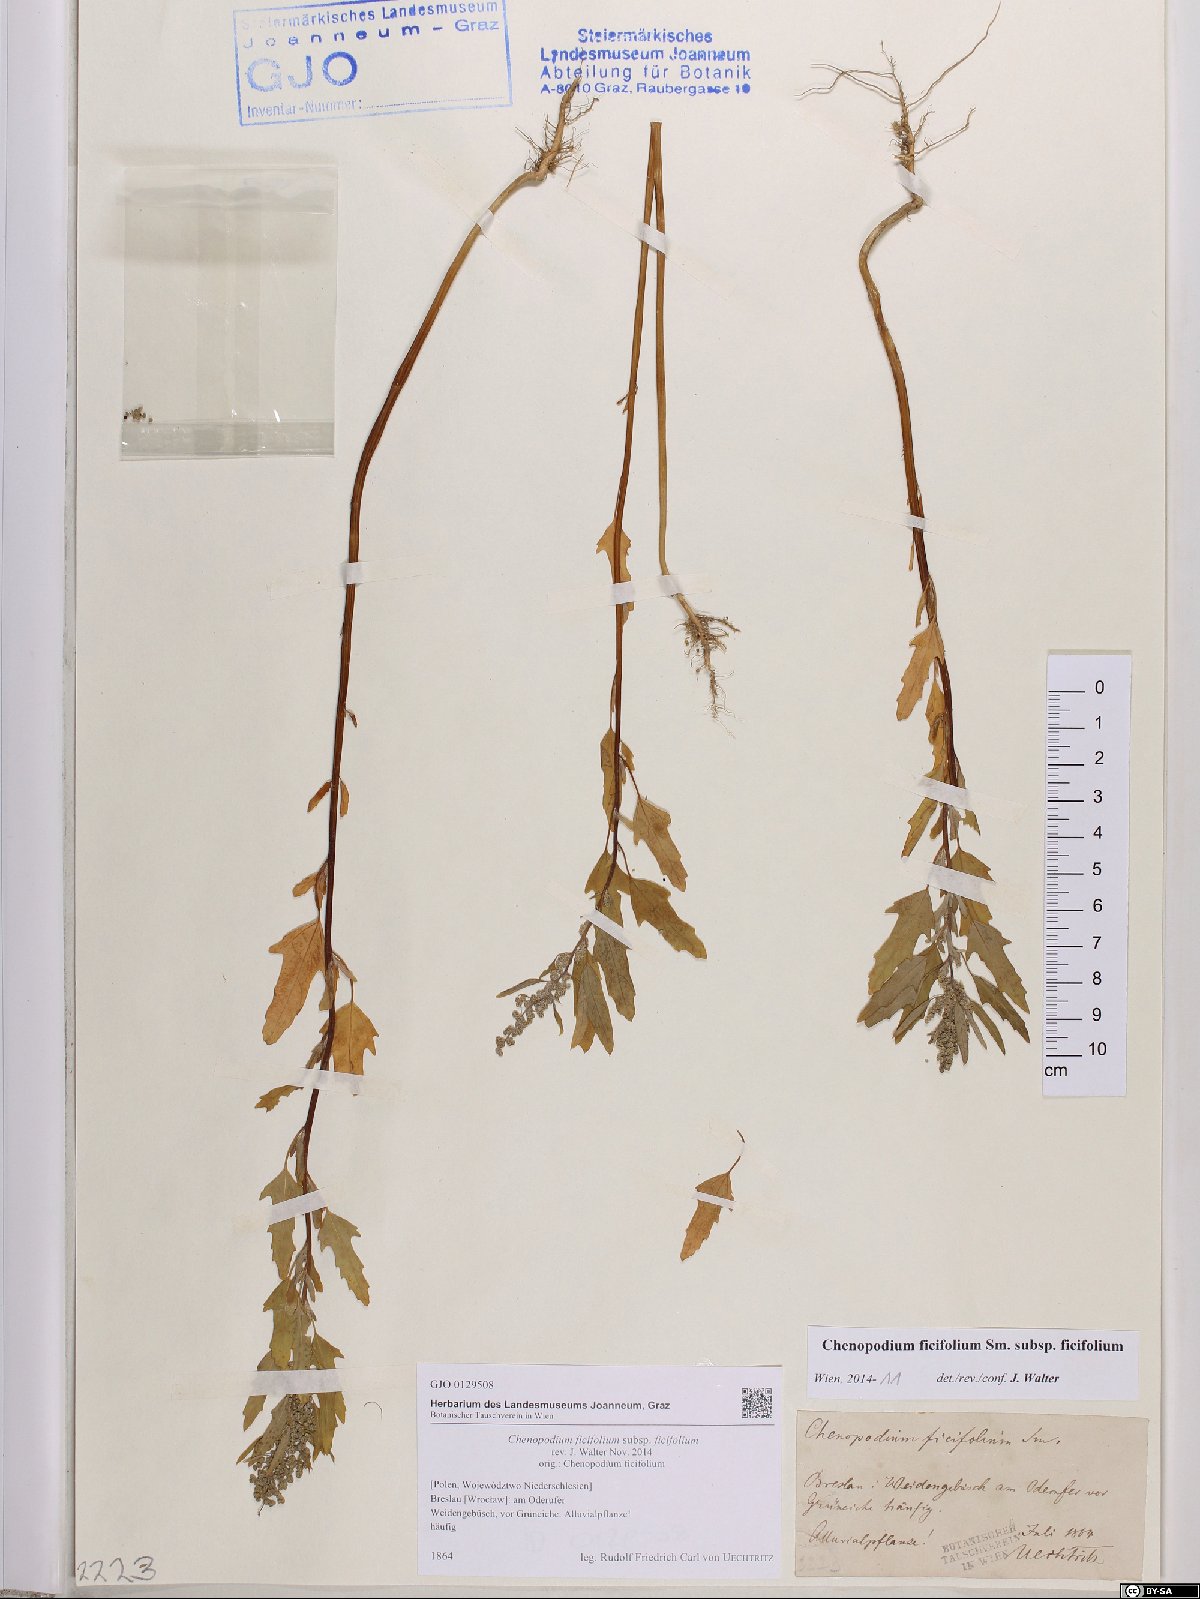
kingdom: Plantae
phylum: Tracheophyta
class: Magnoliopsida
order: Caryophyllales
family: Amaranthaceae
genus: Chenopodium
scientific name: Chenopodium ficifolium
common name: Fig-leaved goosefoot
